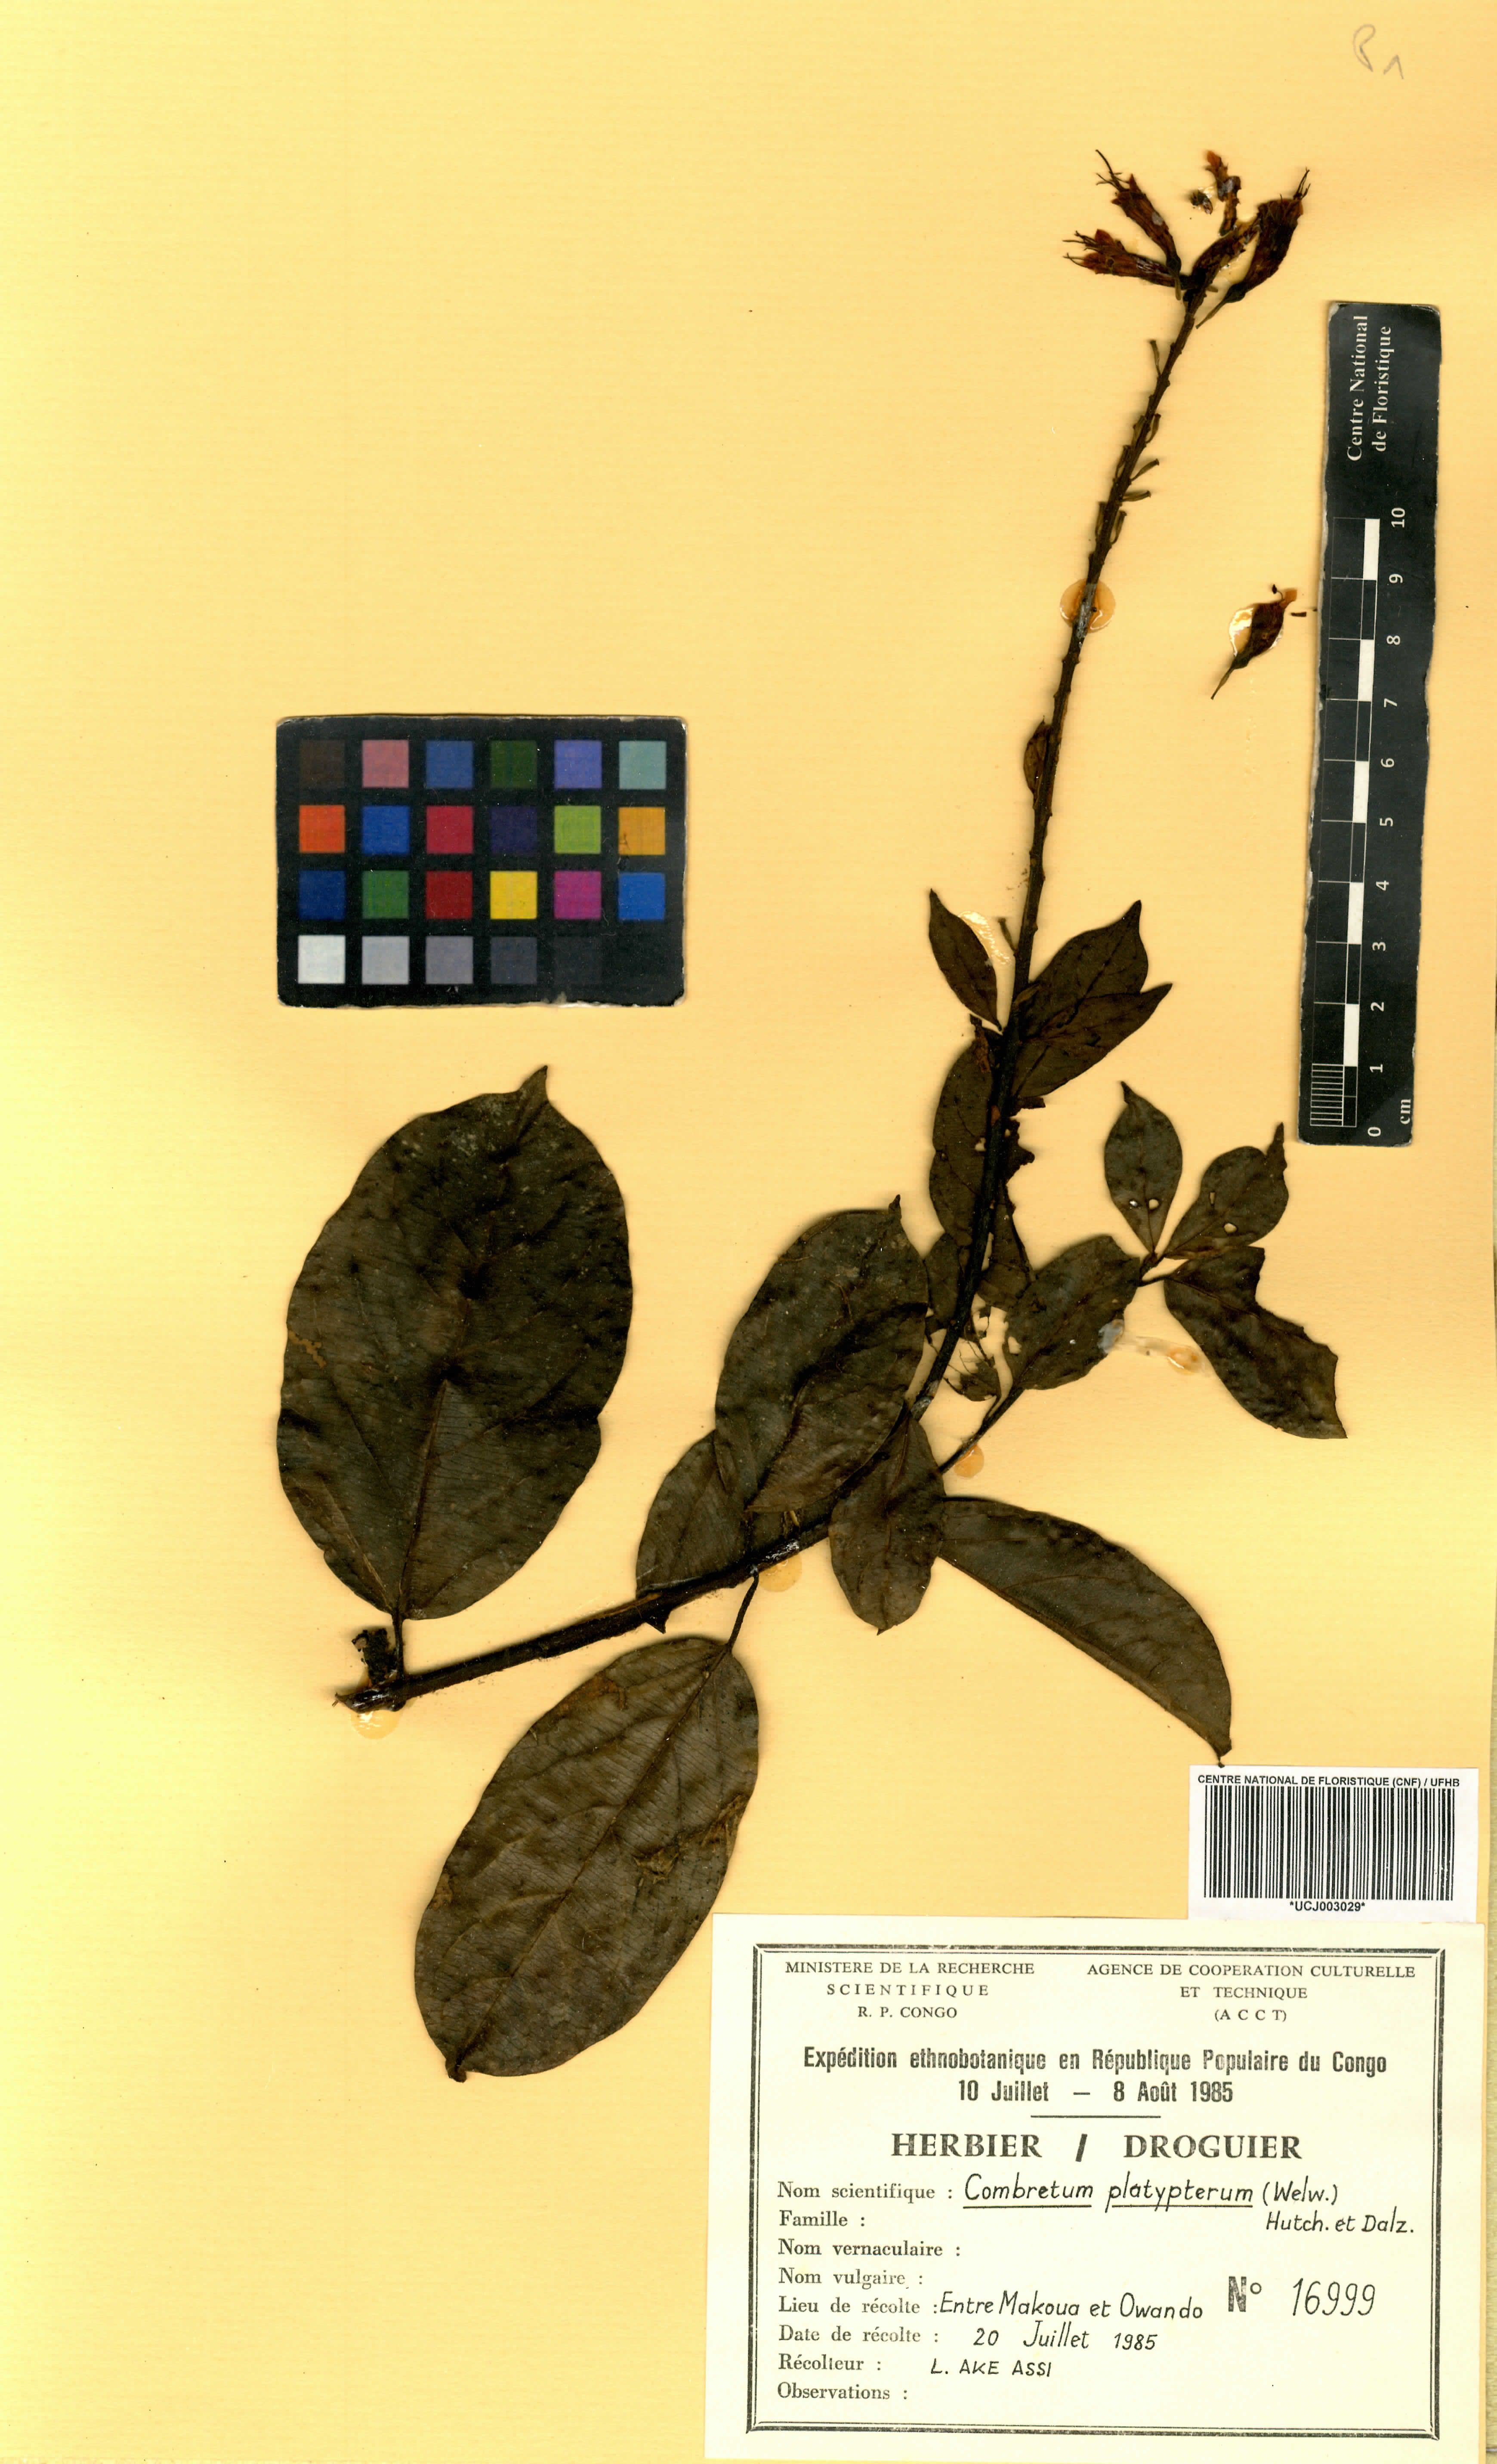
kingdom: Plantae
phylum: Tracheophyta
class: Magnoliopsida
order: Myrtales
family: Combretaceae
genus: Combretum
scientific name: Combretum platypterum
